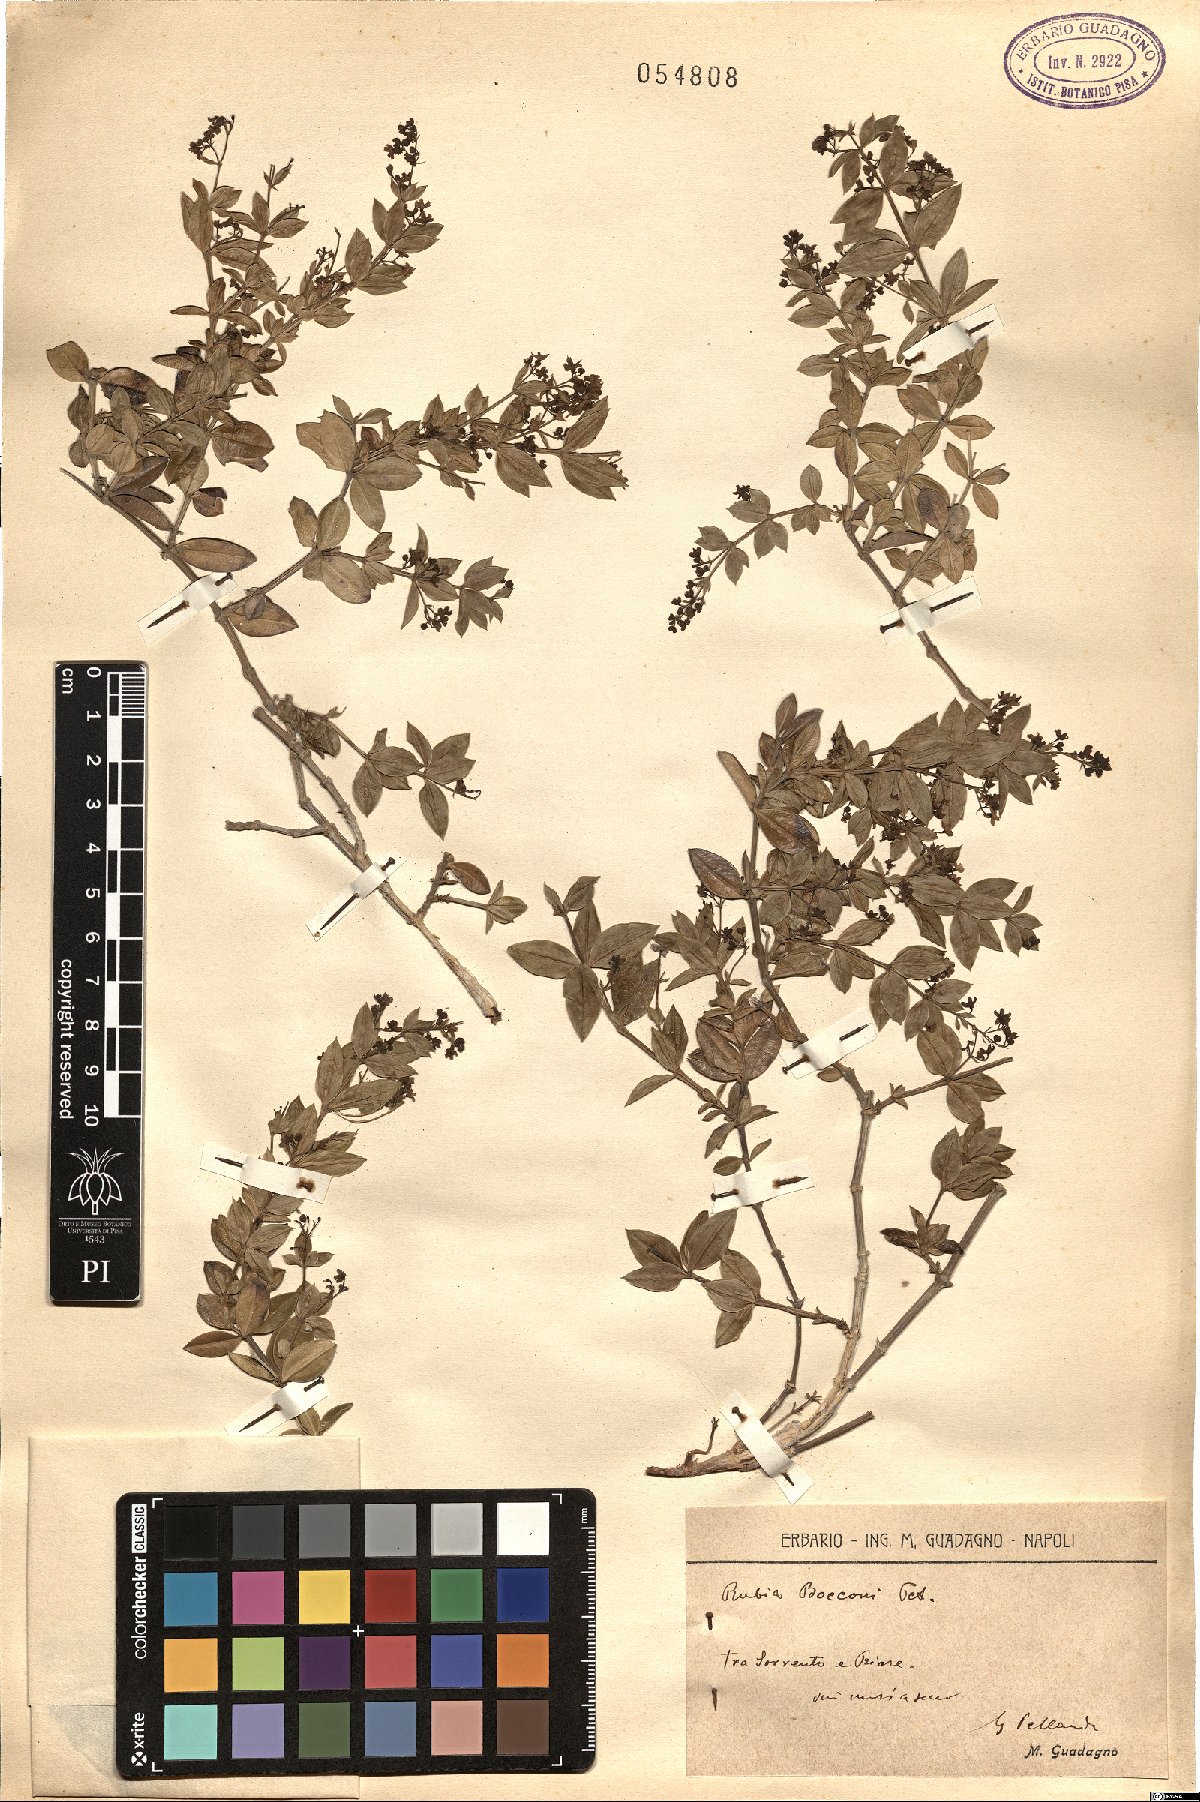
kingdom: Plantae
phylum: Tracheophyta
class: Magnoliopsida
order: Gentianales
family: Rubiaceae
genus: Rubia
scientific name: Rubia peregrina
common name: Wild madder
